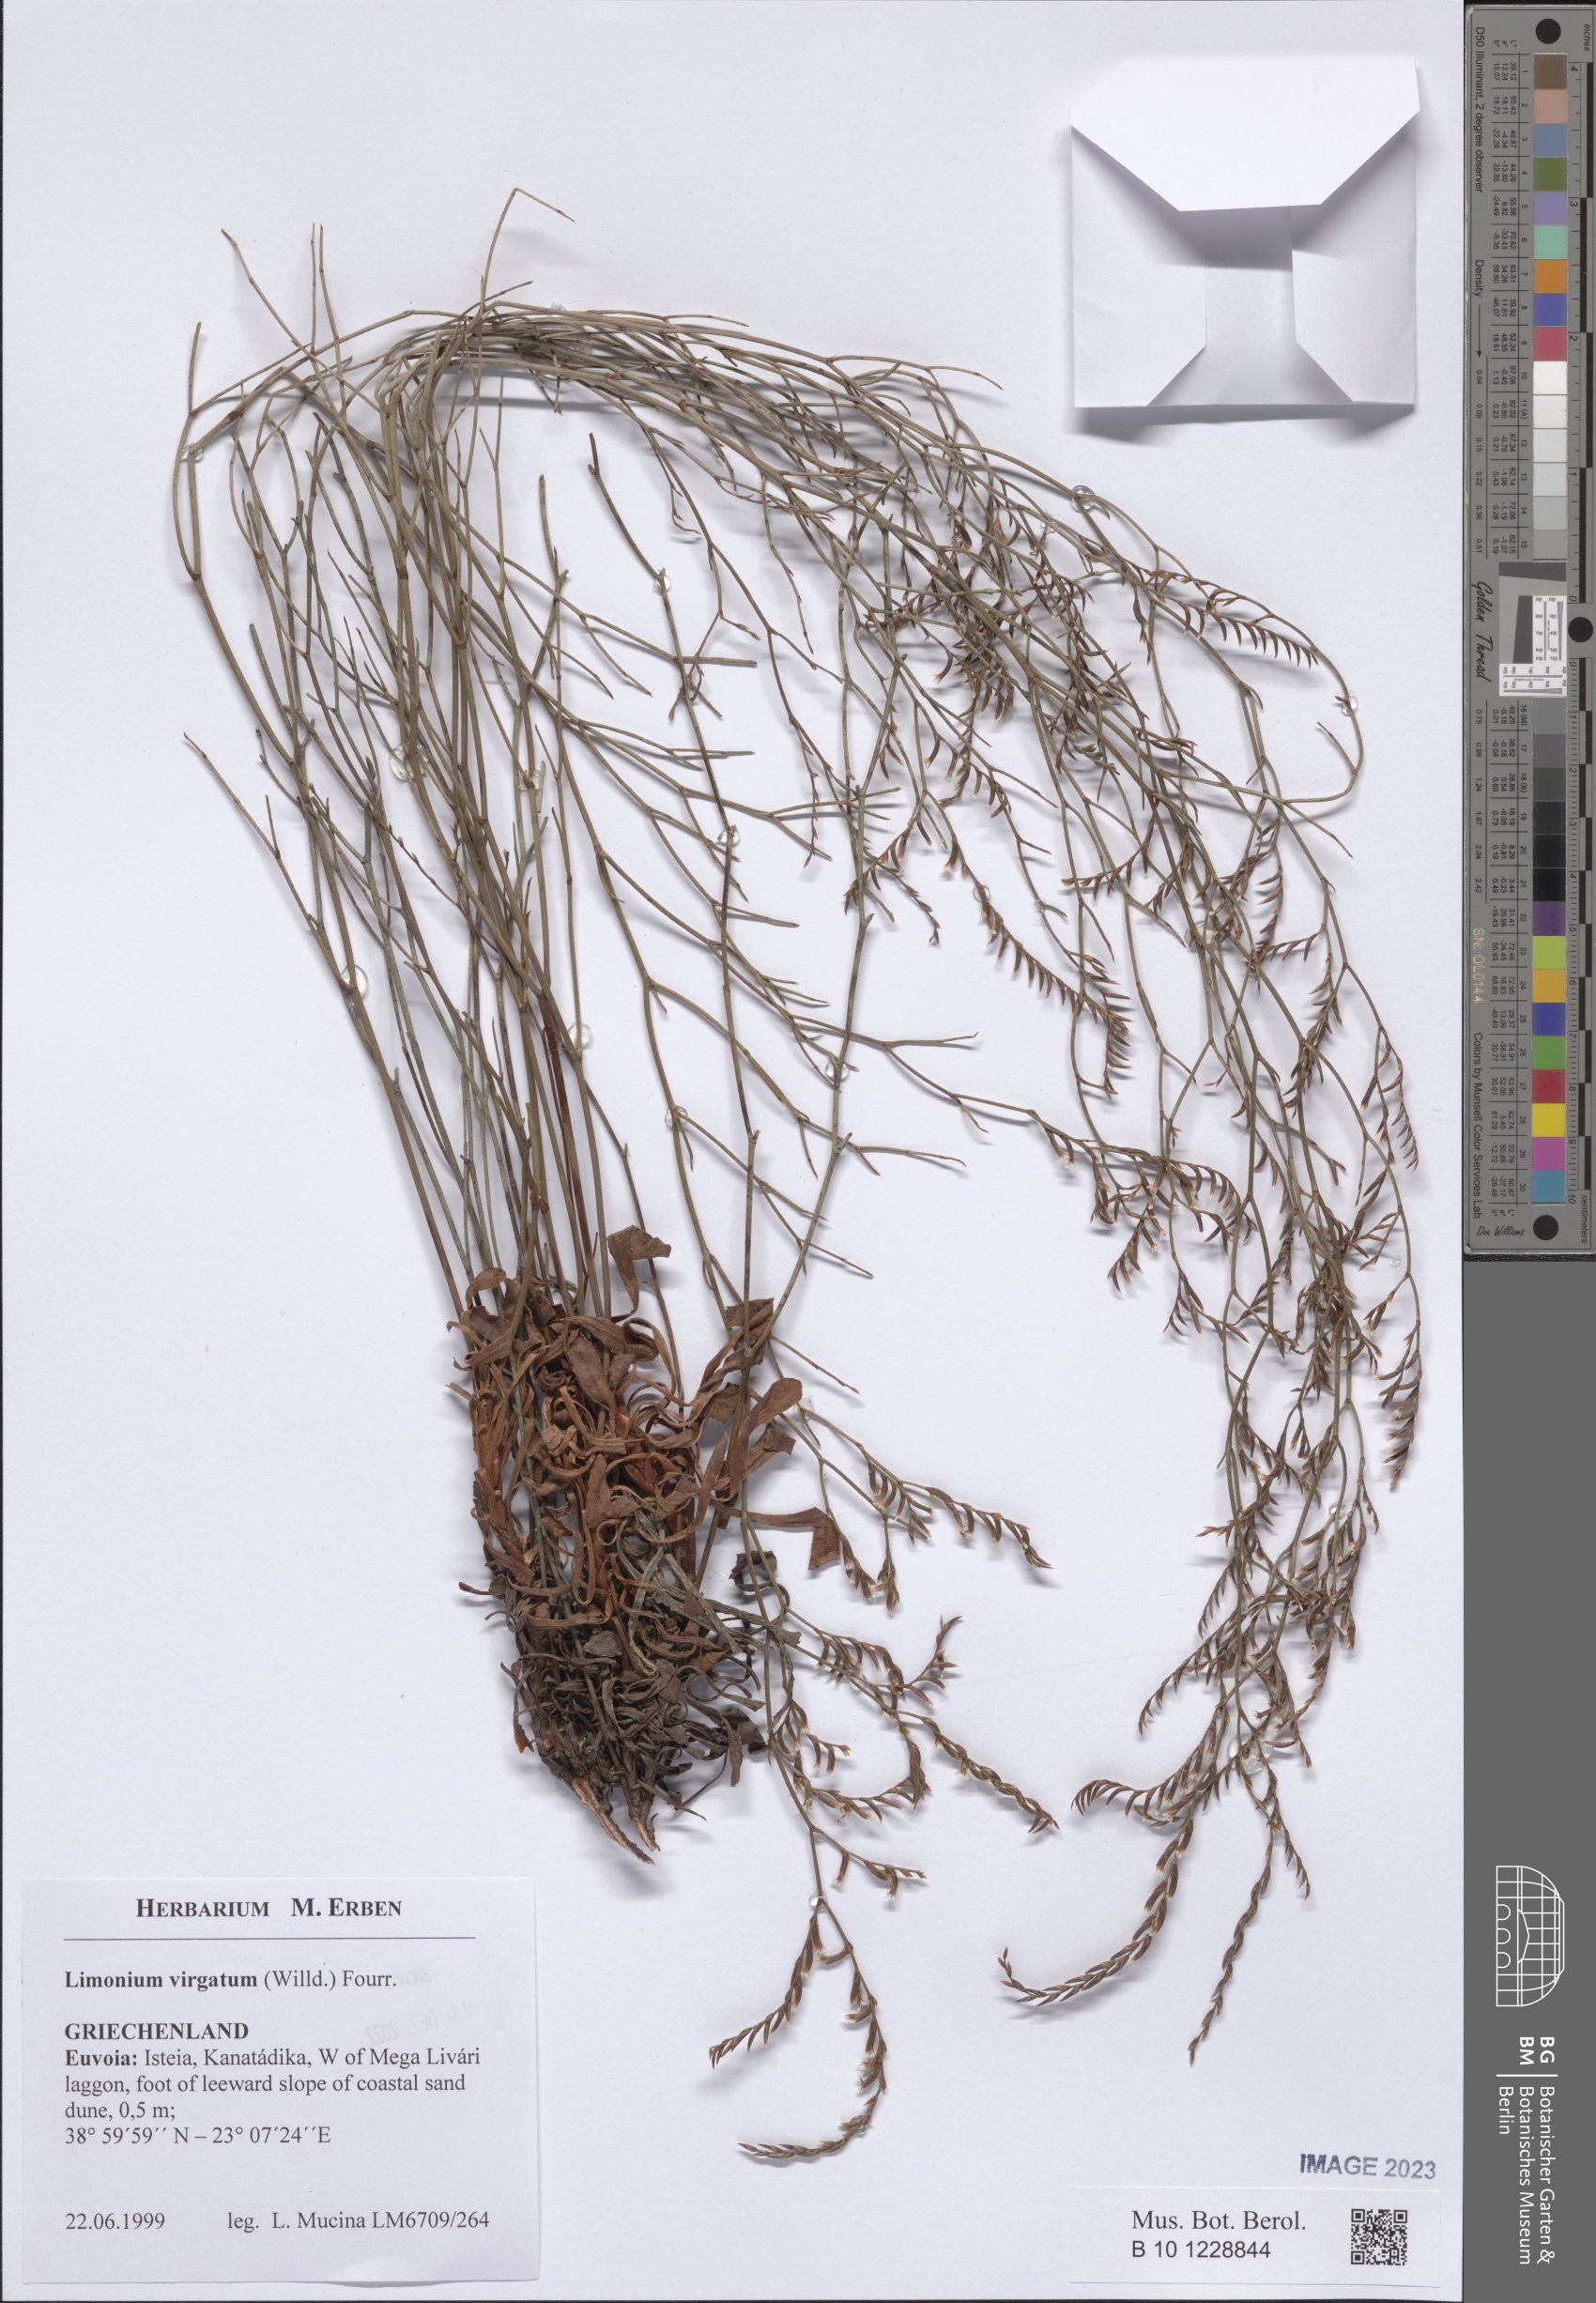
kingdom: Plantae
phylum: Tracheophyta
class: Magnoliopsida
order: Caryophyllales
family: Plumbaginaceae
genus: Limonium
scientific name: Limonium virgatum
